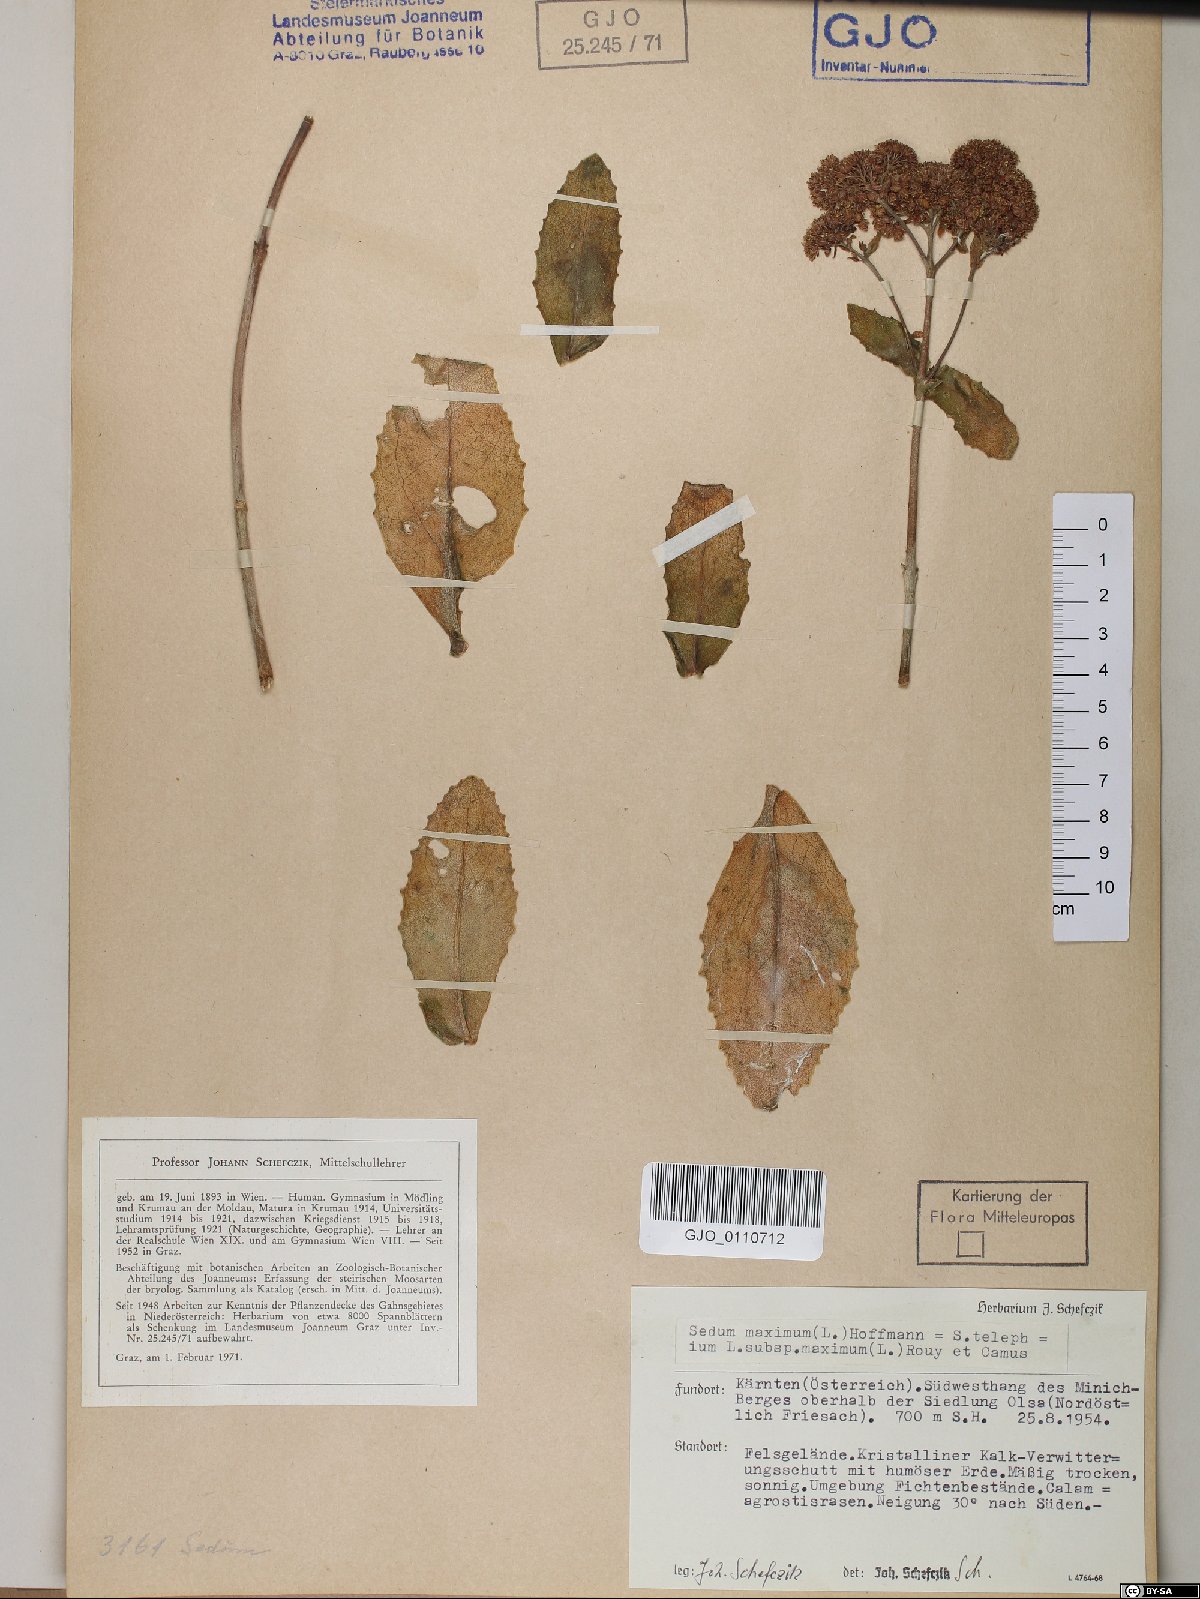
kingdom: Plantae
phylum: Tracheophyta
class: Magnoliopsida
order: Saxifragales
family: Crassulaceae
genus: Hylotelephium
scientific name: Hylotelephium maximum
